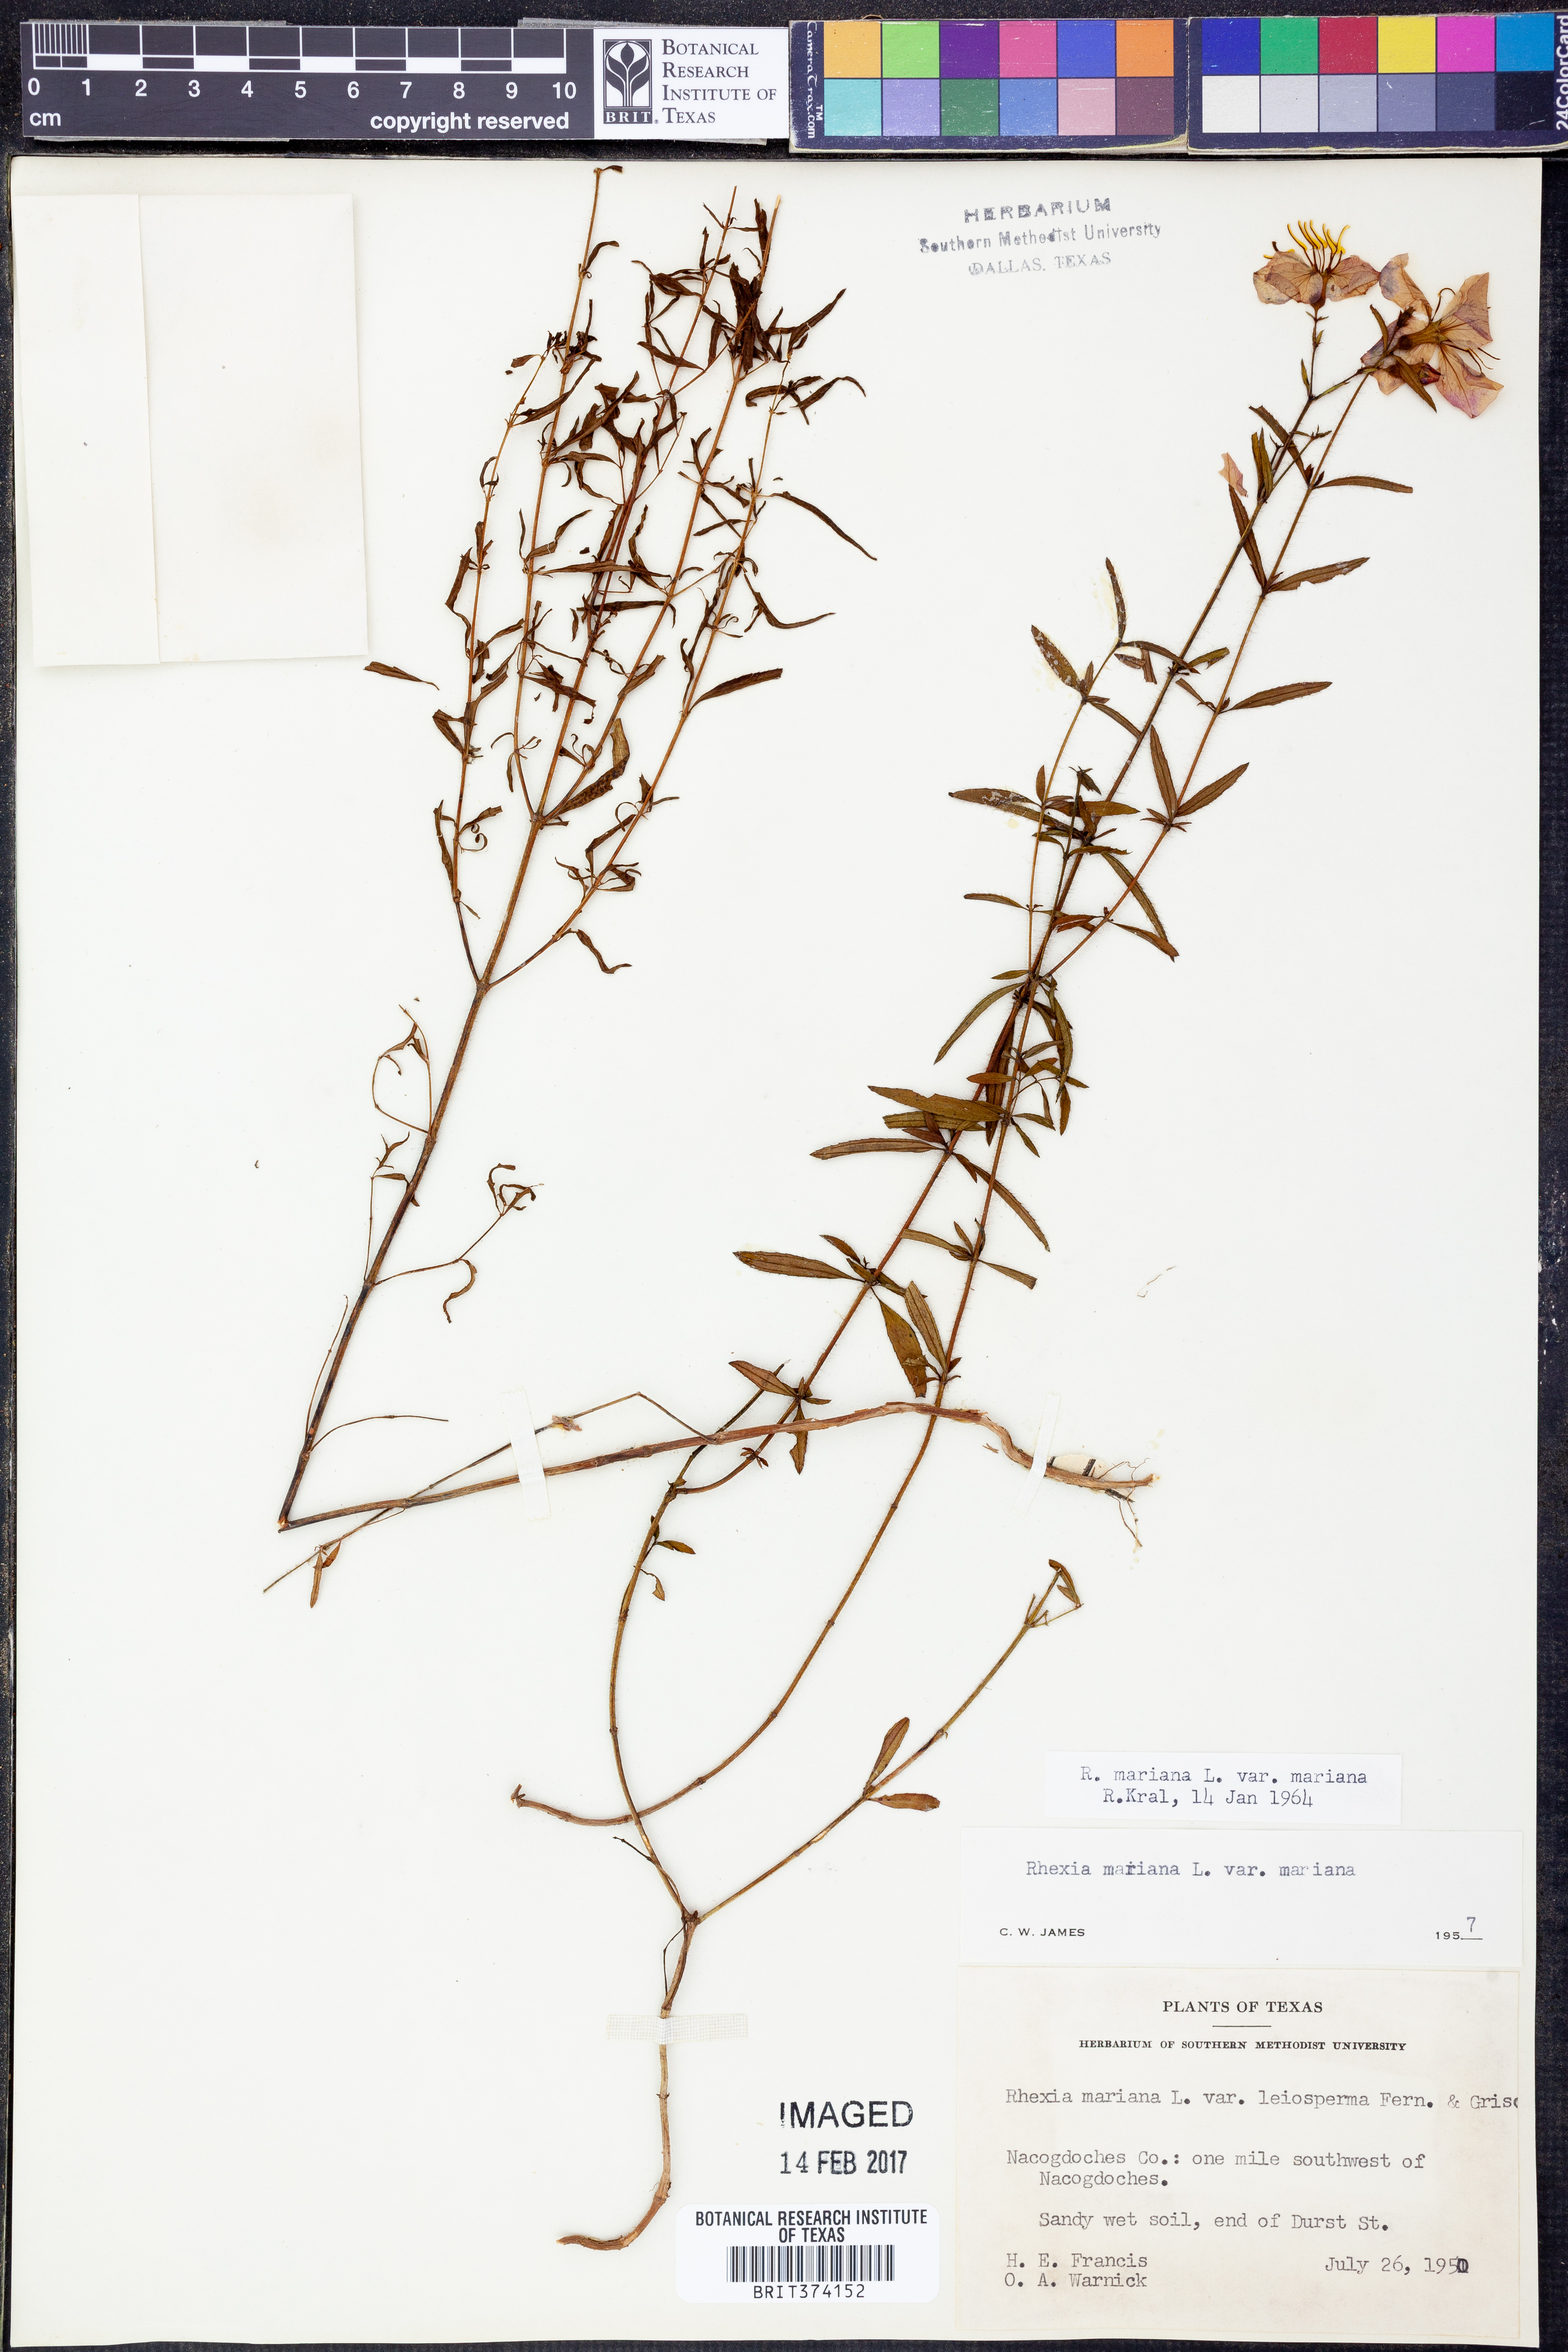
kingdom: Plantae
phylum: Tracheophyta
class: Magnoliopsida
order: Myrtales
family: Melastomataceae
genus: Rhexia
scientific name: Rhexia mariana
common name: Dull meadow-pitcher
